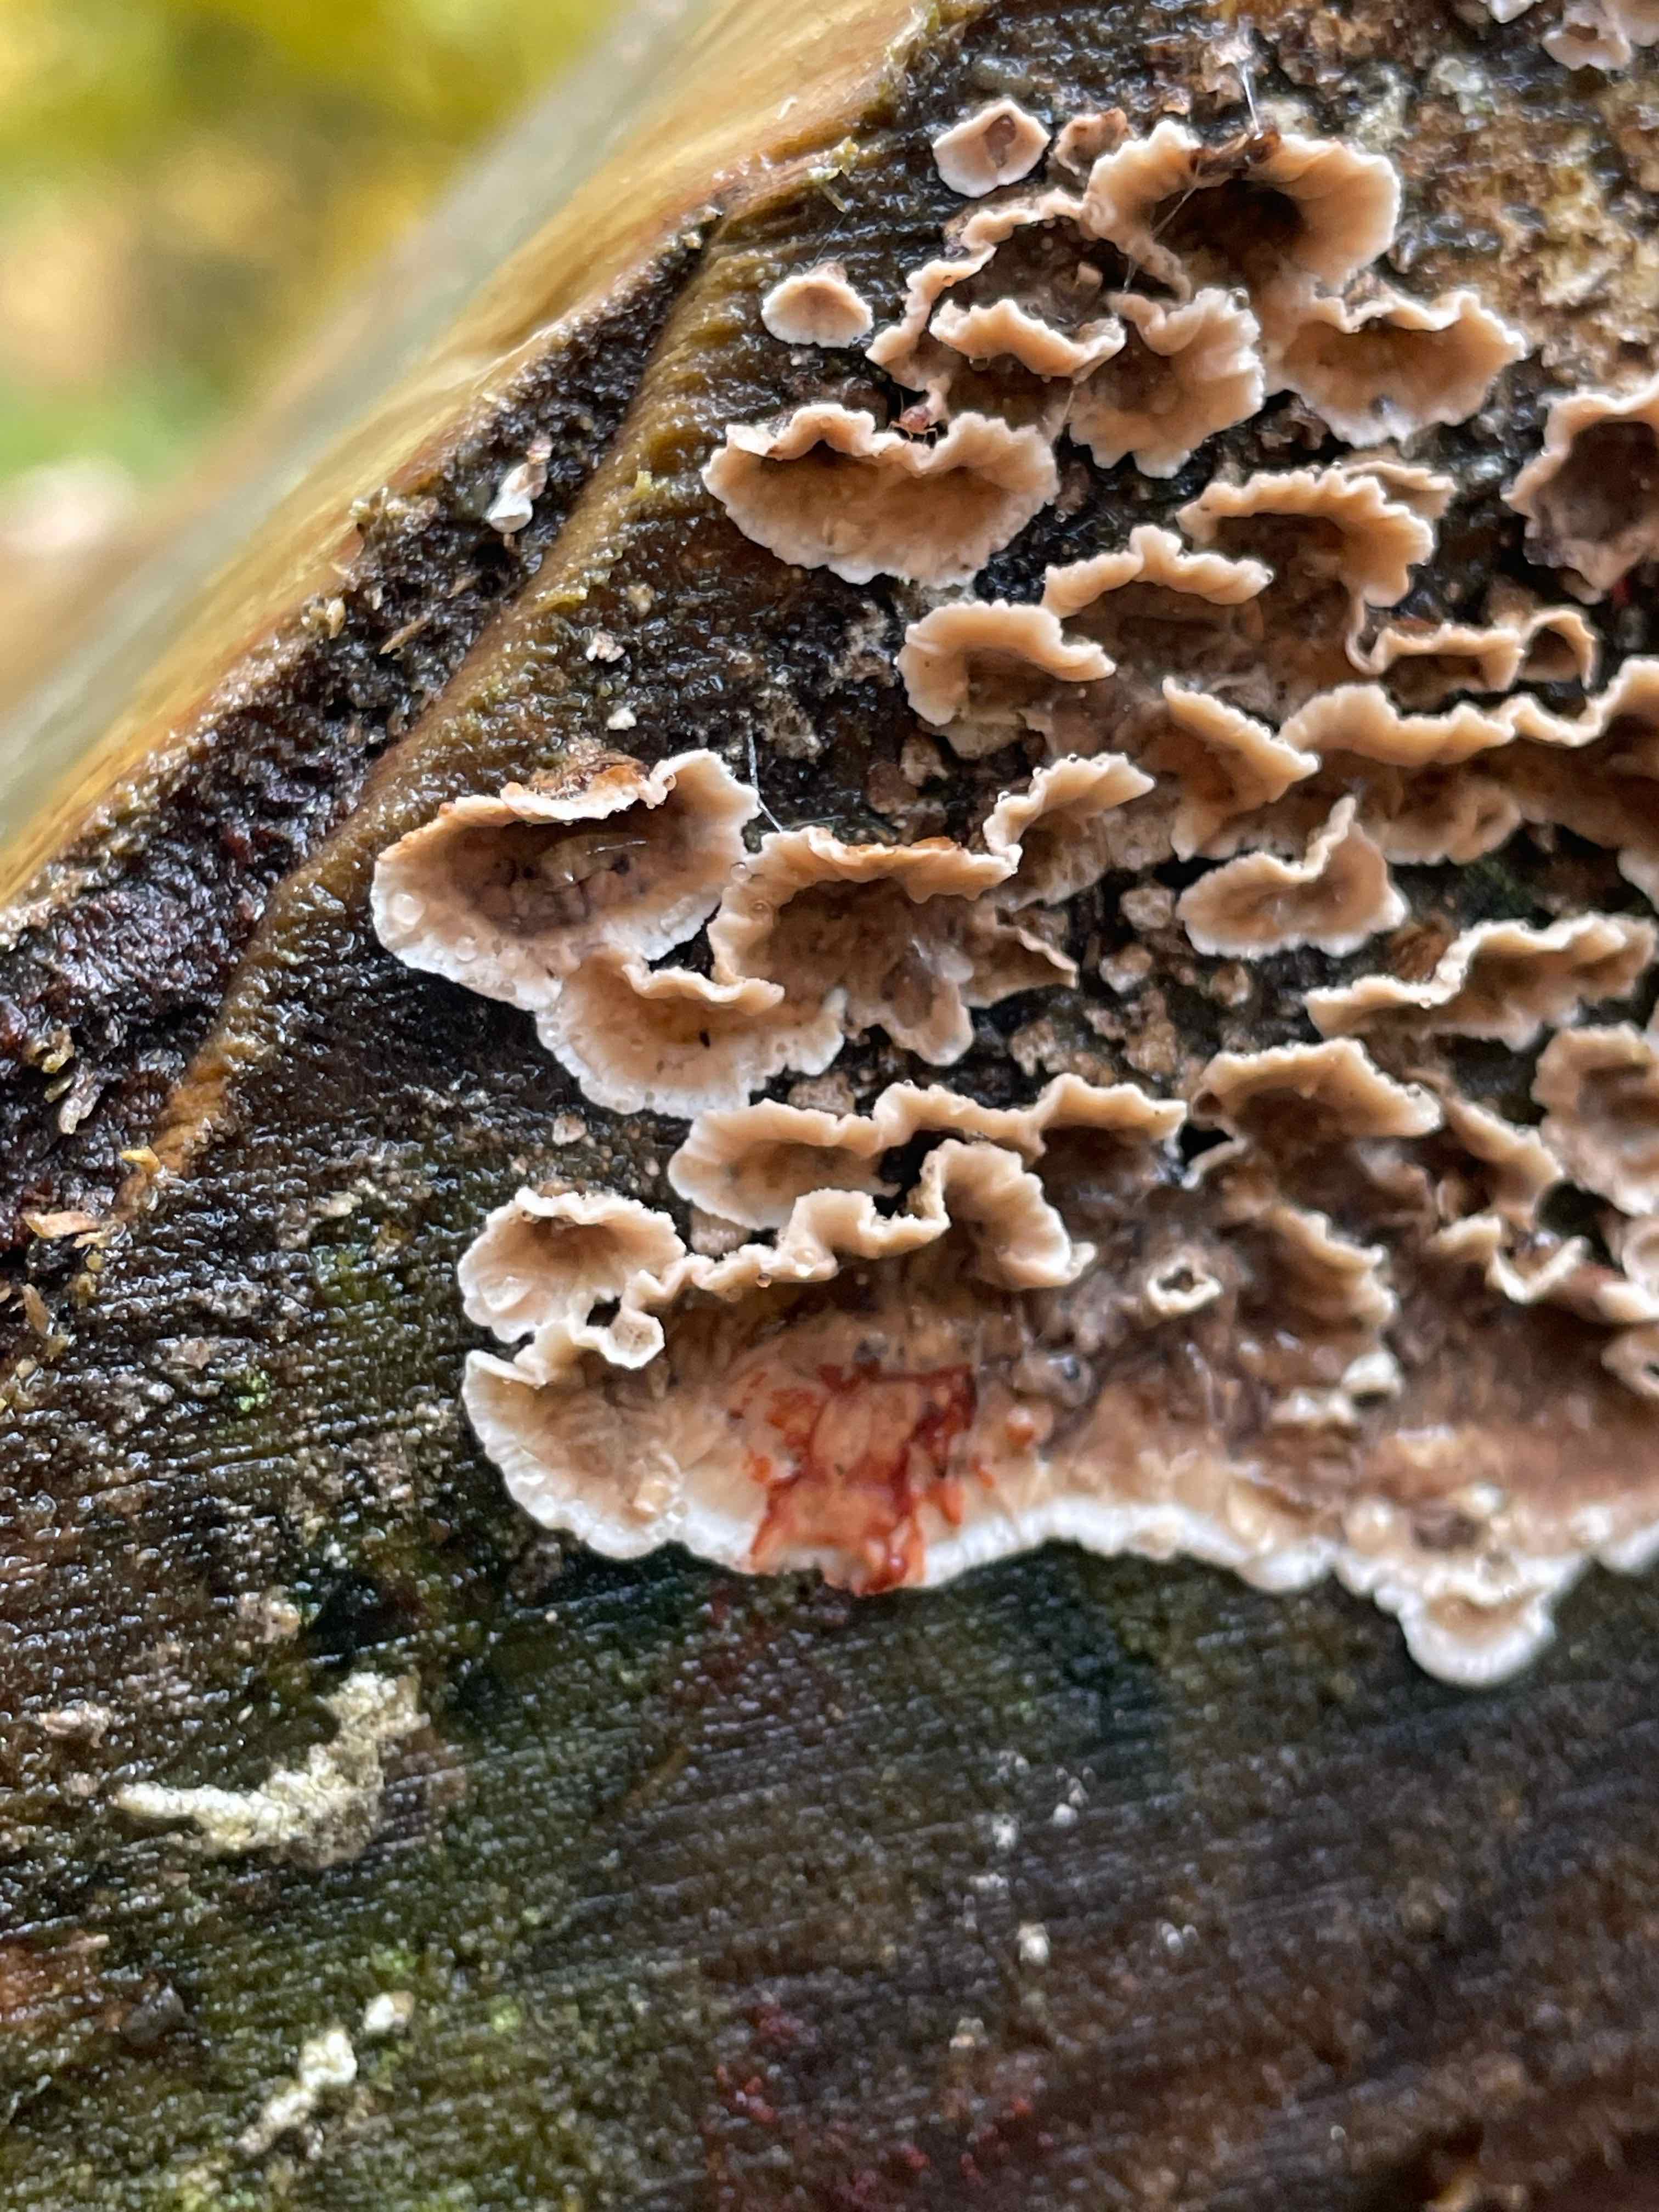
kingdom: Fungi
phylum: Basidiomycota
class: Agaricomycetes
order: Russulales
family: Stereaceae
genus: Stereum
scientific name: Stereum sanguinolentum
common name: blødende lædersvamp
